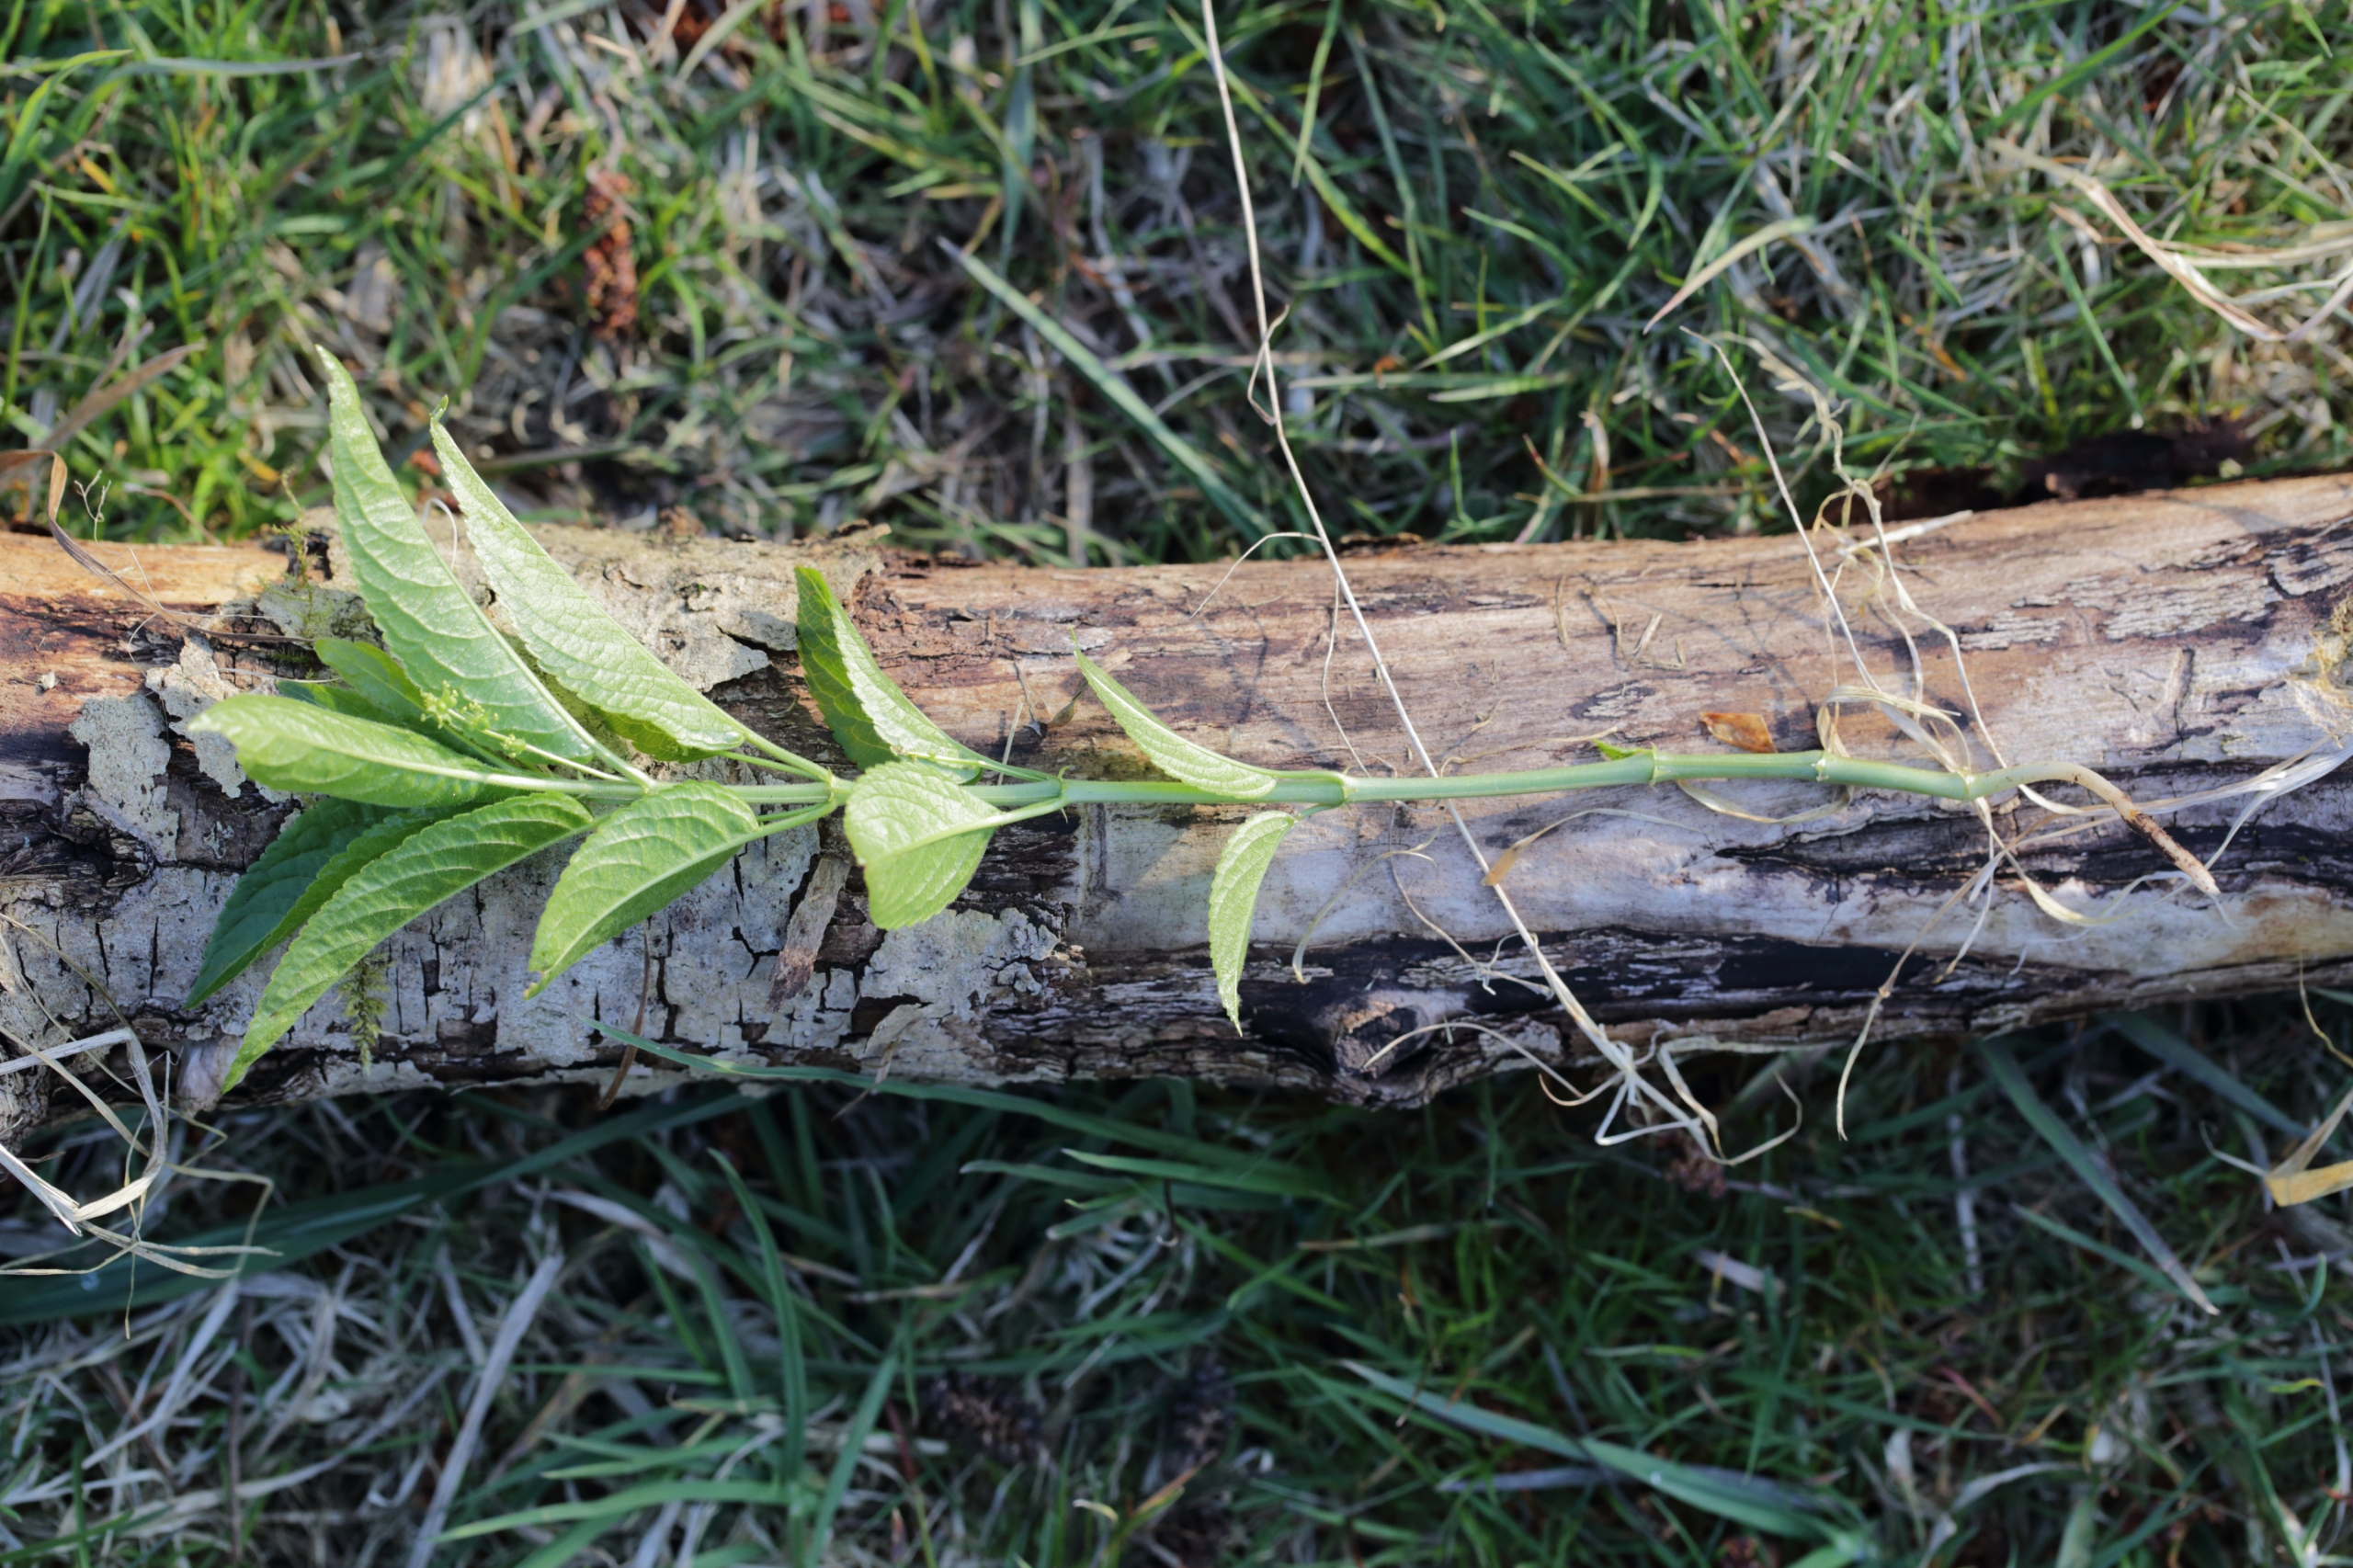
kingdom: Plantae
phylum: Tracheophyta
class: Magnoliopsida
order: Malpighiales
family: Euphorbiaceae
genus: Mercurialis
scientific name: Mercurialis perennis
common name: Almindelig bingelurt
